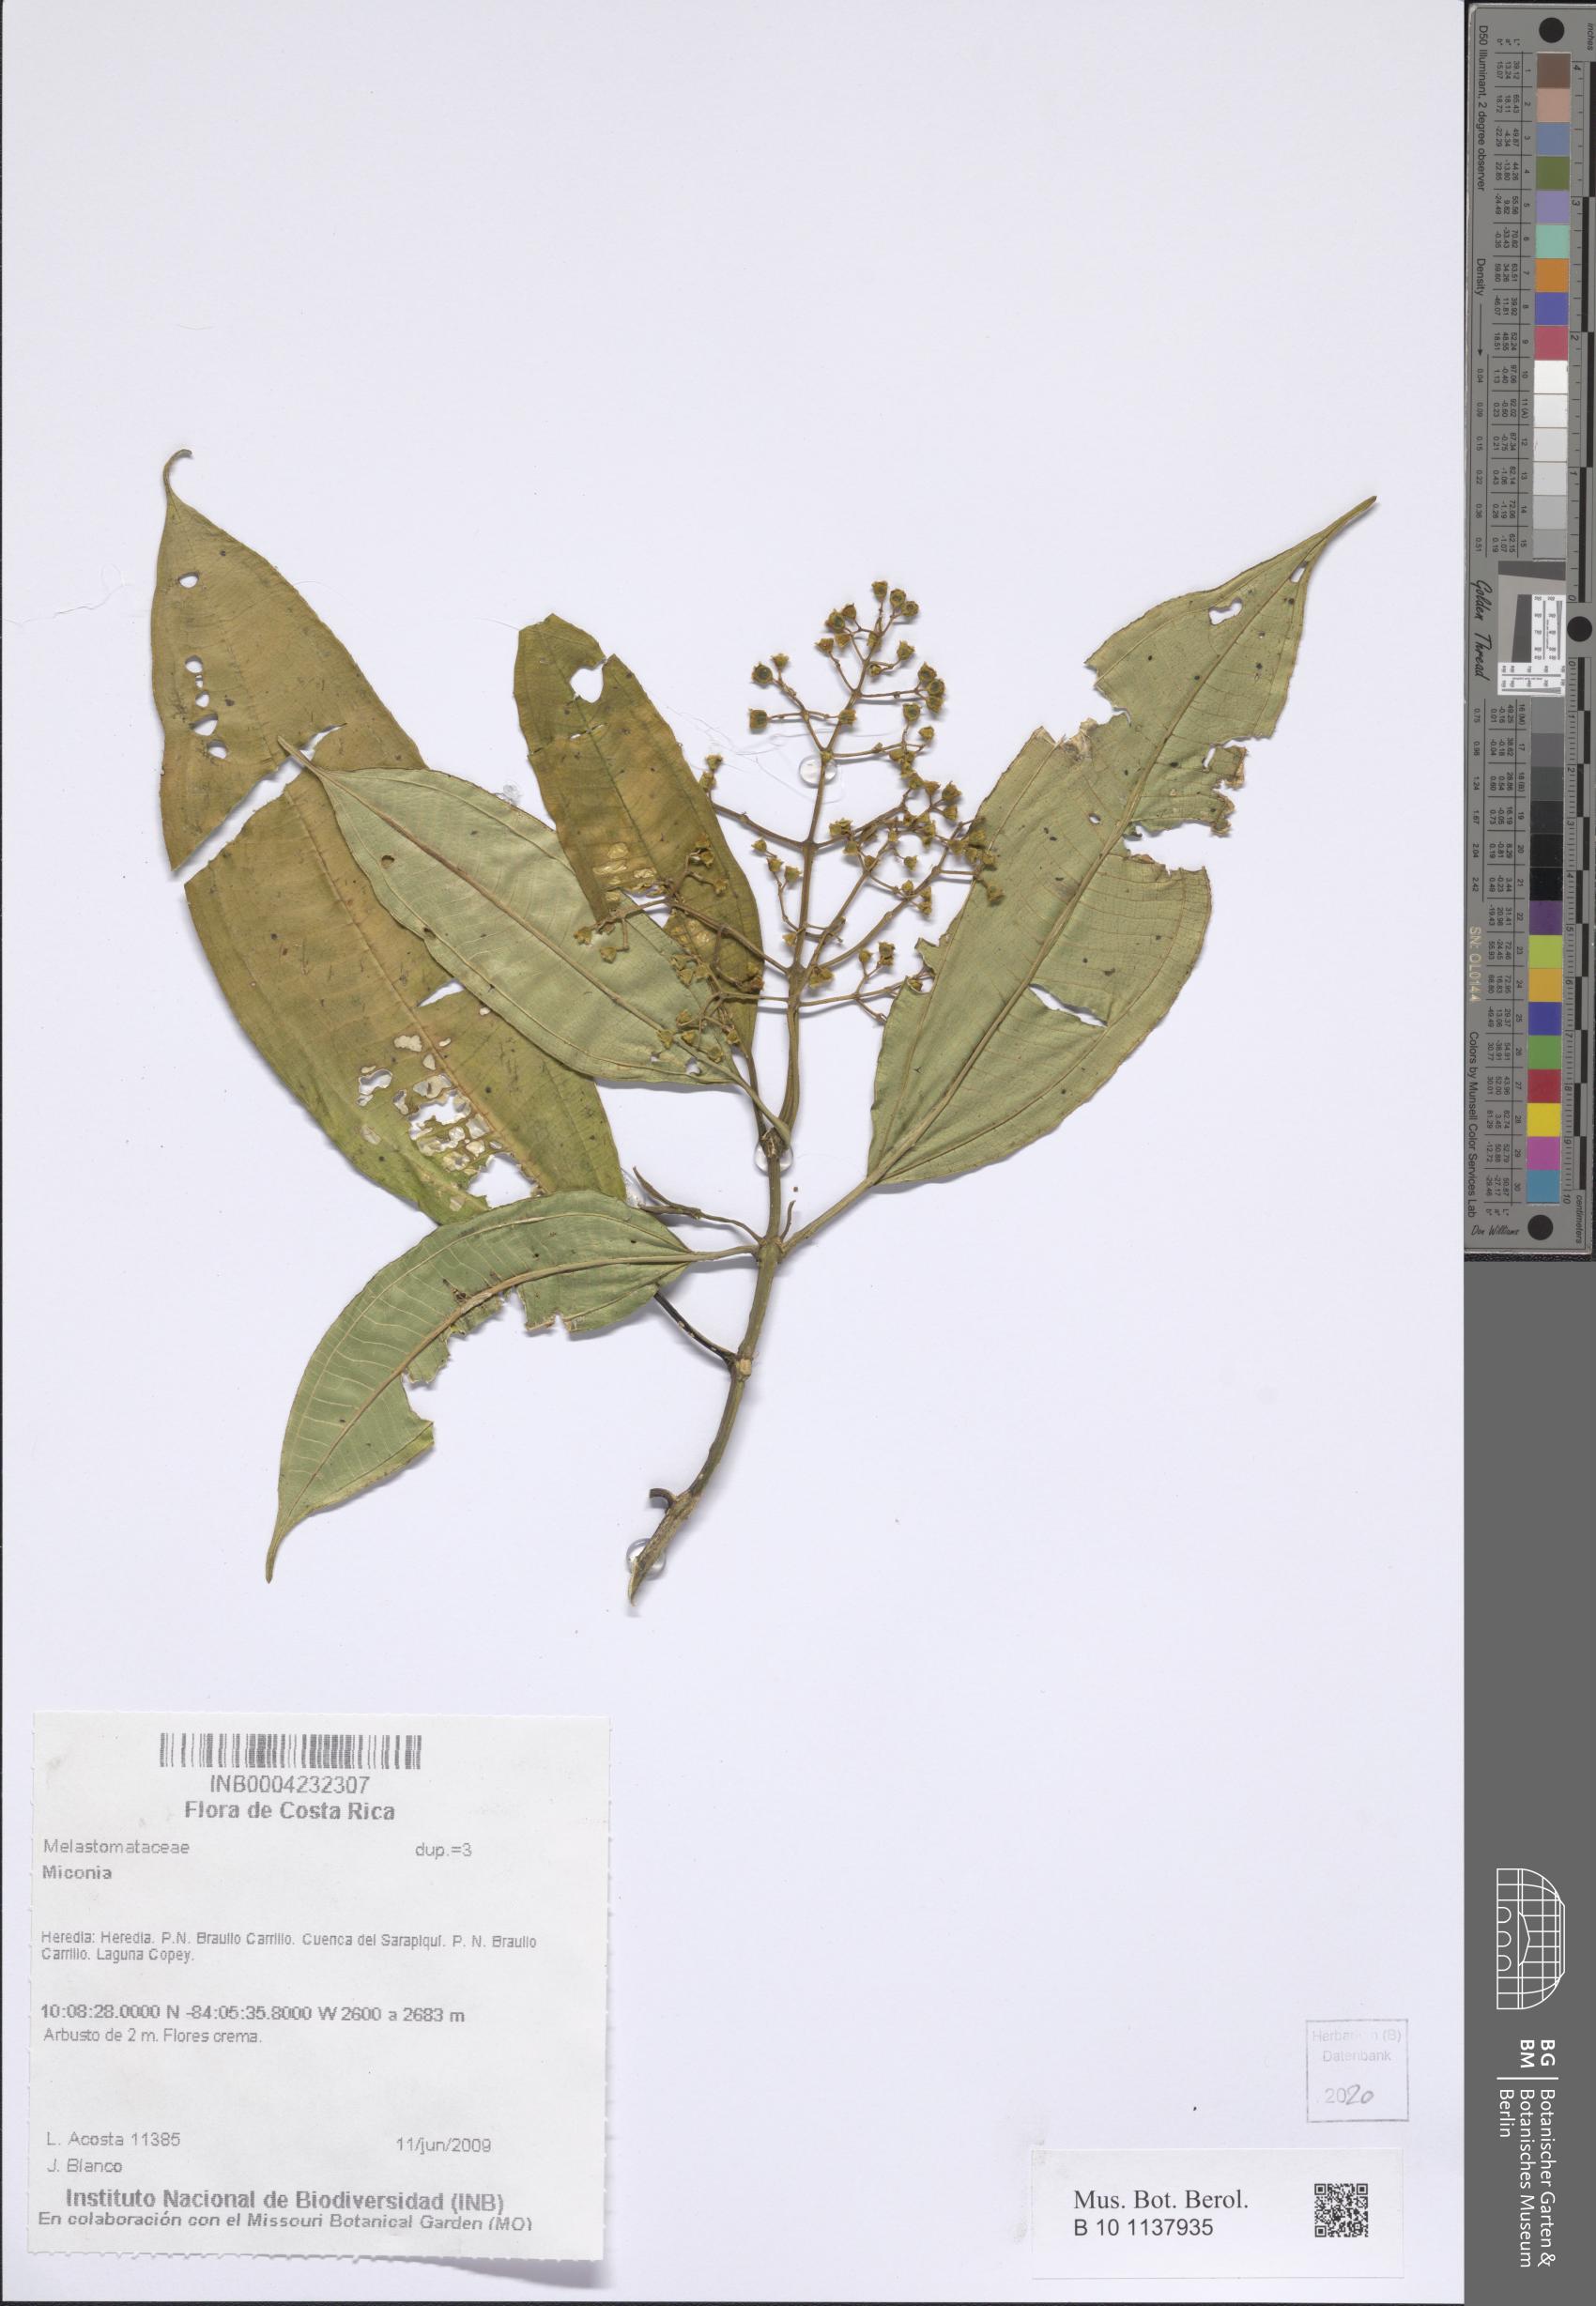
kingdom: Plantae
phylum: Tracheophyta
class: Magnoliopsida
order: Myrtales
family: Melastomataceae
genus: Miconia
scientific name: Miconia
